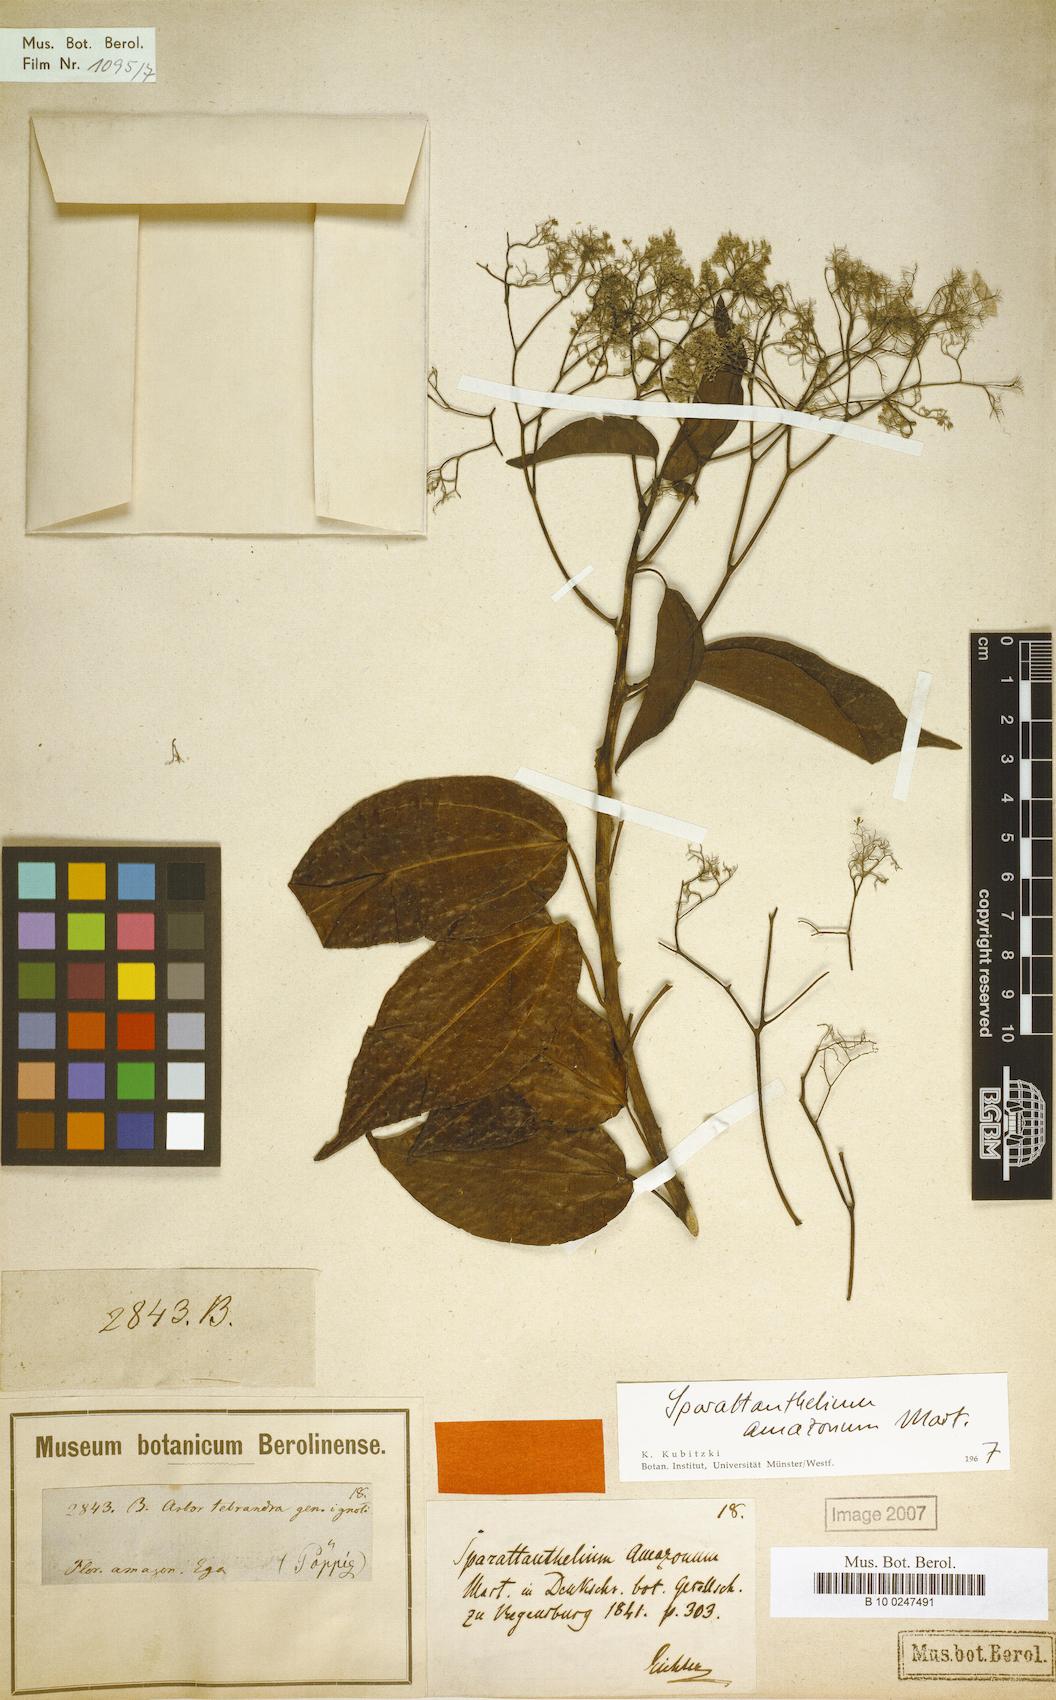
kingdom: Plantae
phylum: Tracheophyta
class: Magnoliopsida
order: Laurales
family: Hernandiaceae
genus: Sparattanthelium
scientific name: Sparattanthelium amazonum
